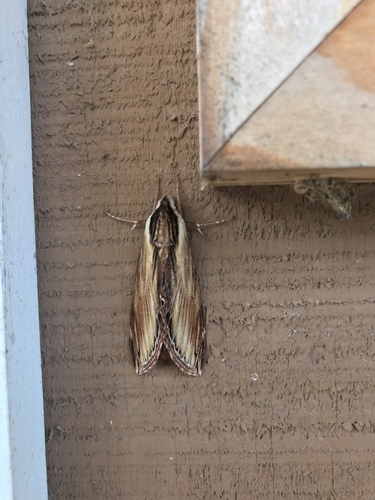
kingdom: Animalia
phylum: Arthropoda
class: Insecta
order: Lepidoptera
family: Sphingidae
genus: Sphinx
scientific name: Sphinx kalmiae
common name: Laurel sphinx
